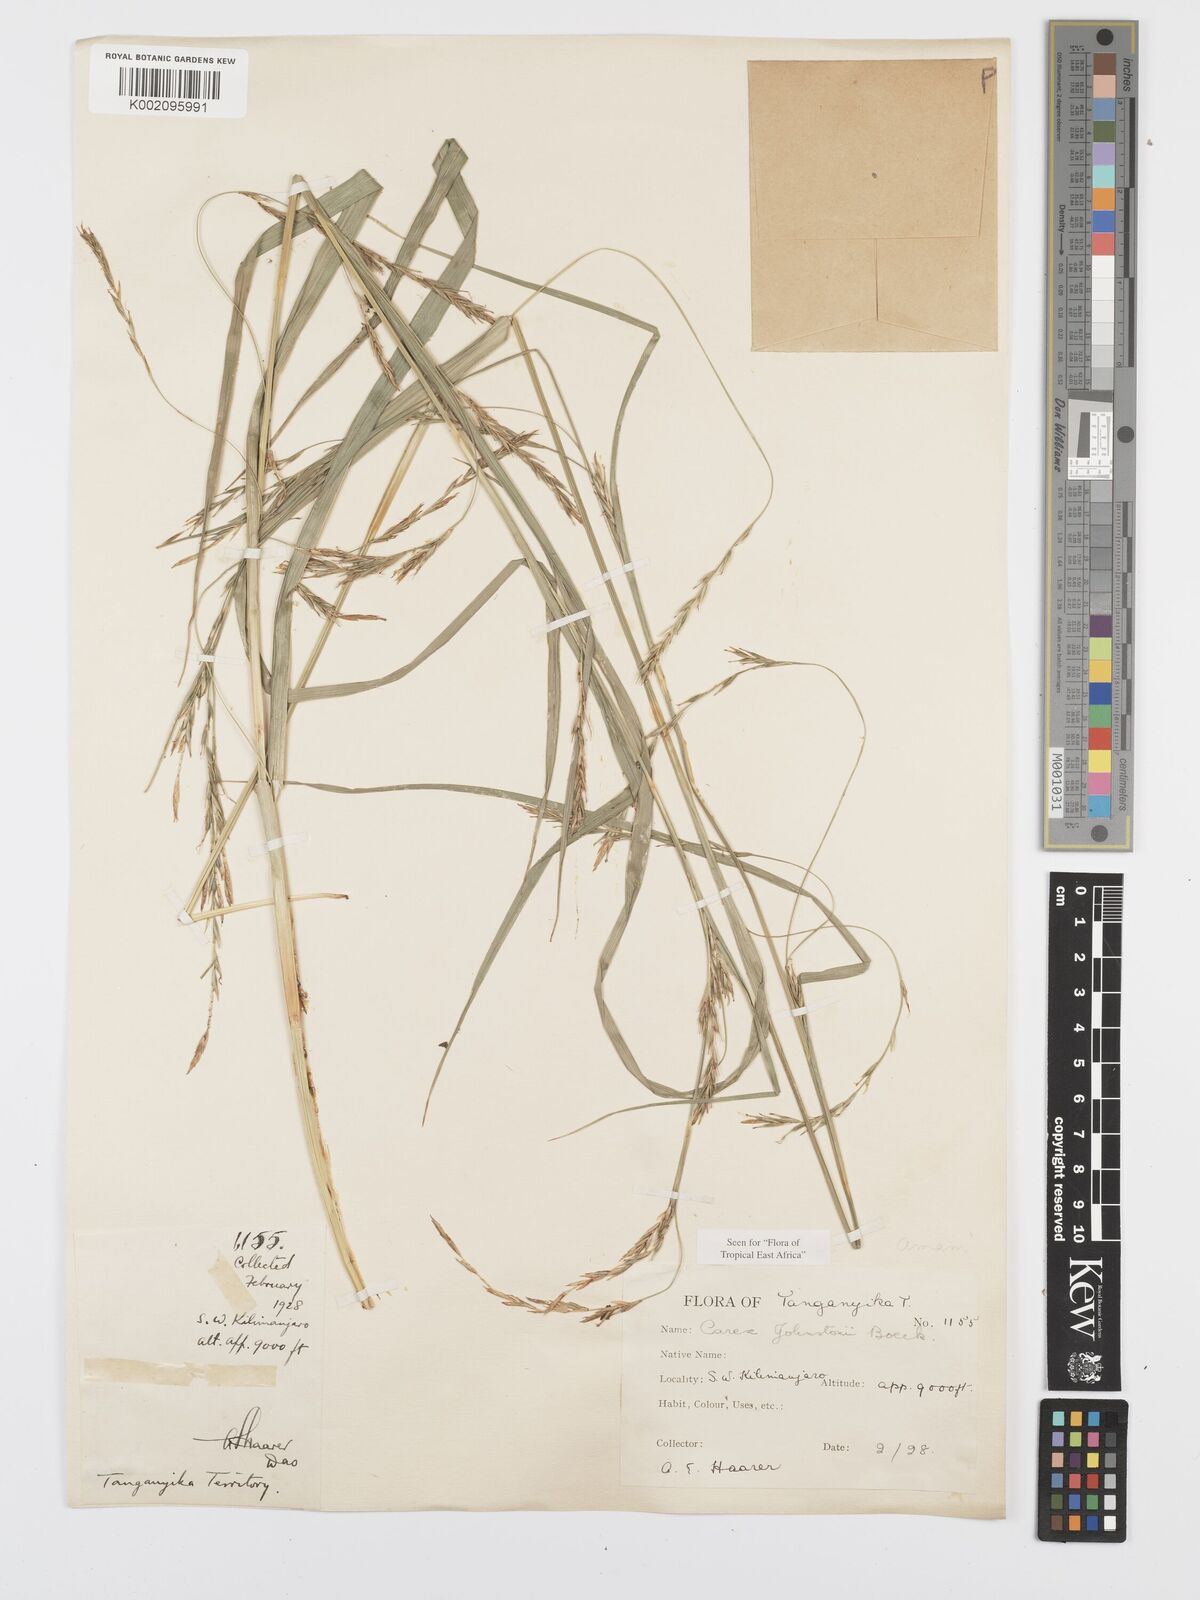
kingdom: Plantae
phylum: Tracheophyta
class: Liliopsida
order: Poales
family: Cyperaceae
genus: Carex
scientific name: Carex johnstonii
